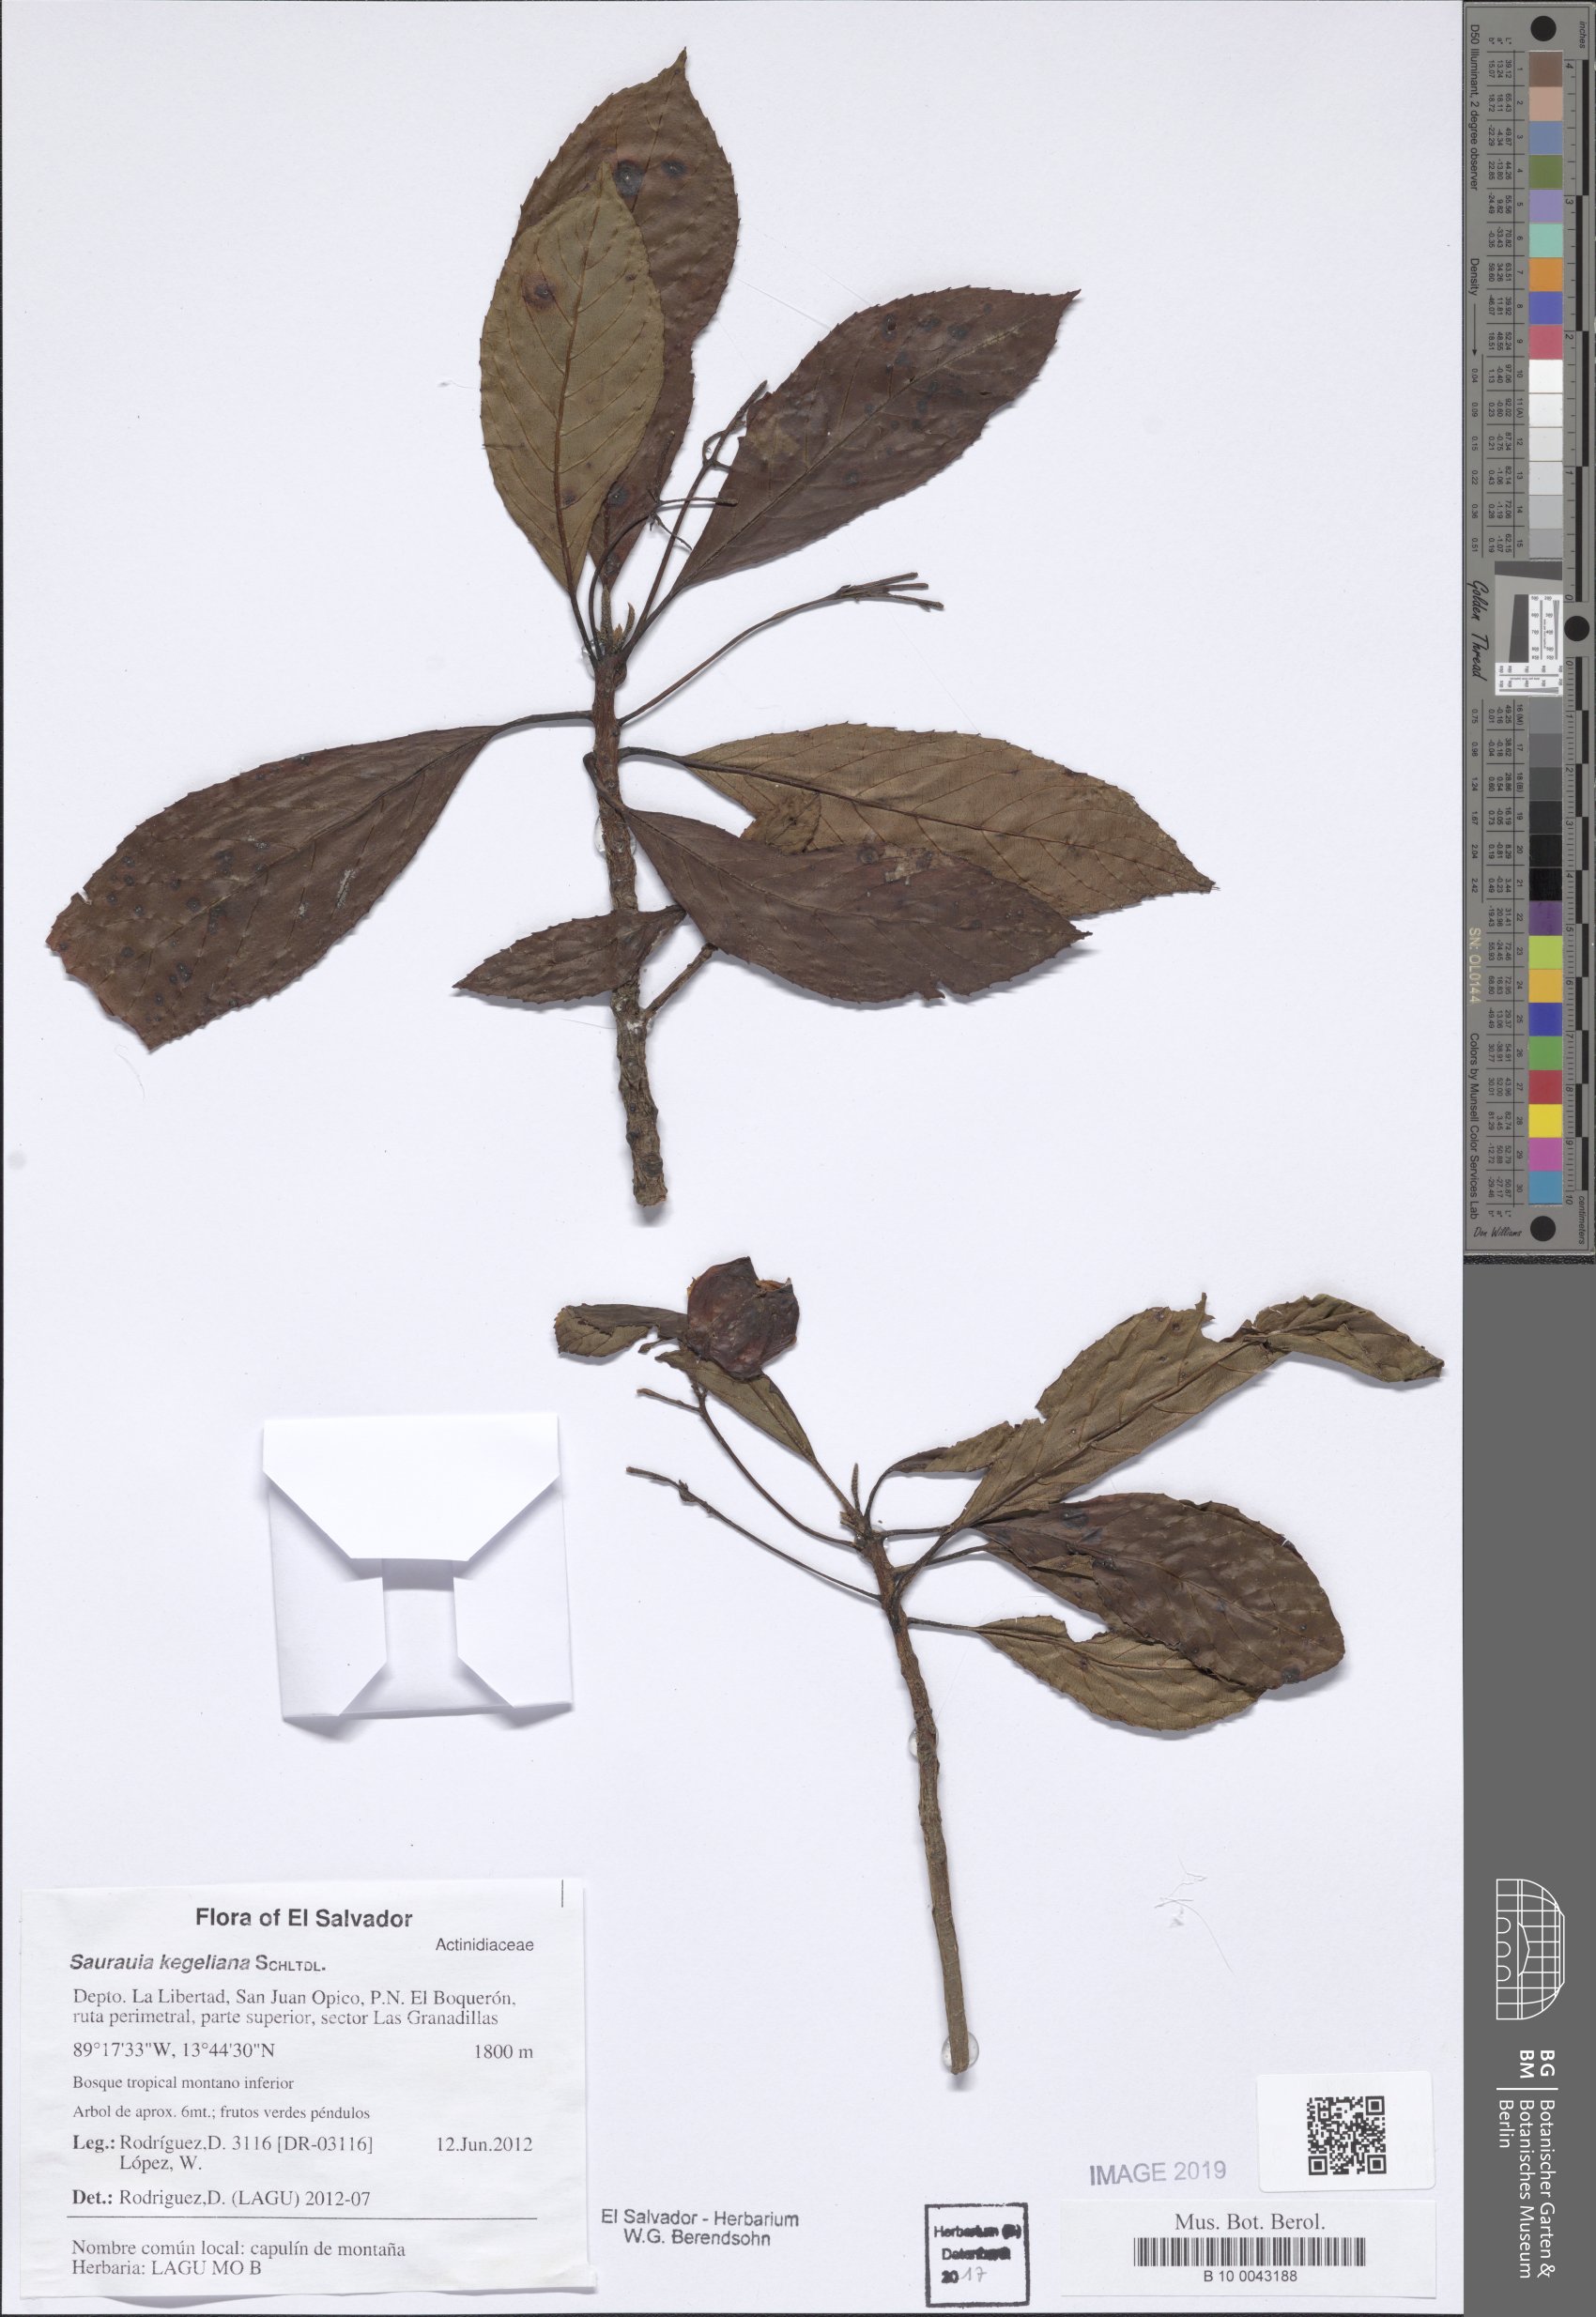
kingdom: Plantae
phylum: Tracheophyta
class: Magnoliopsida
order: Ericales
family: Actinidiaceae
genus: Saurauia
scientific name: Saurauia kegeliana
